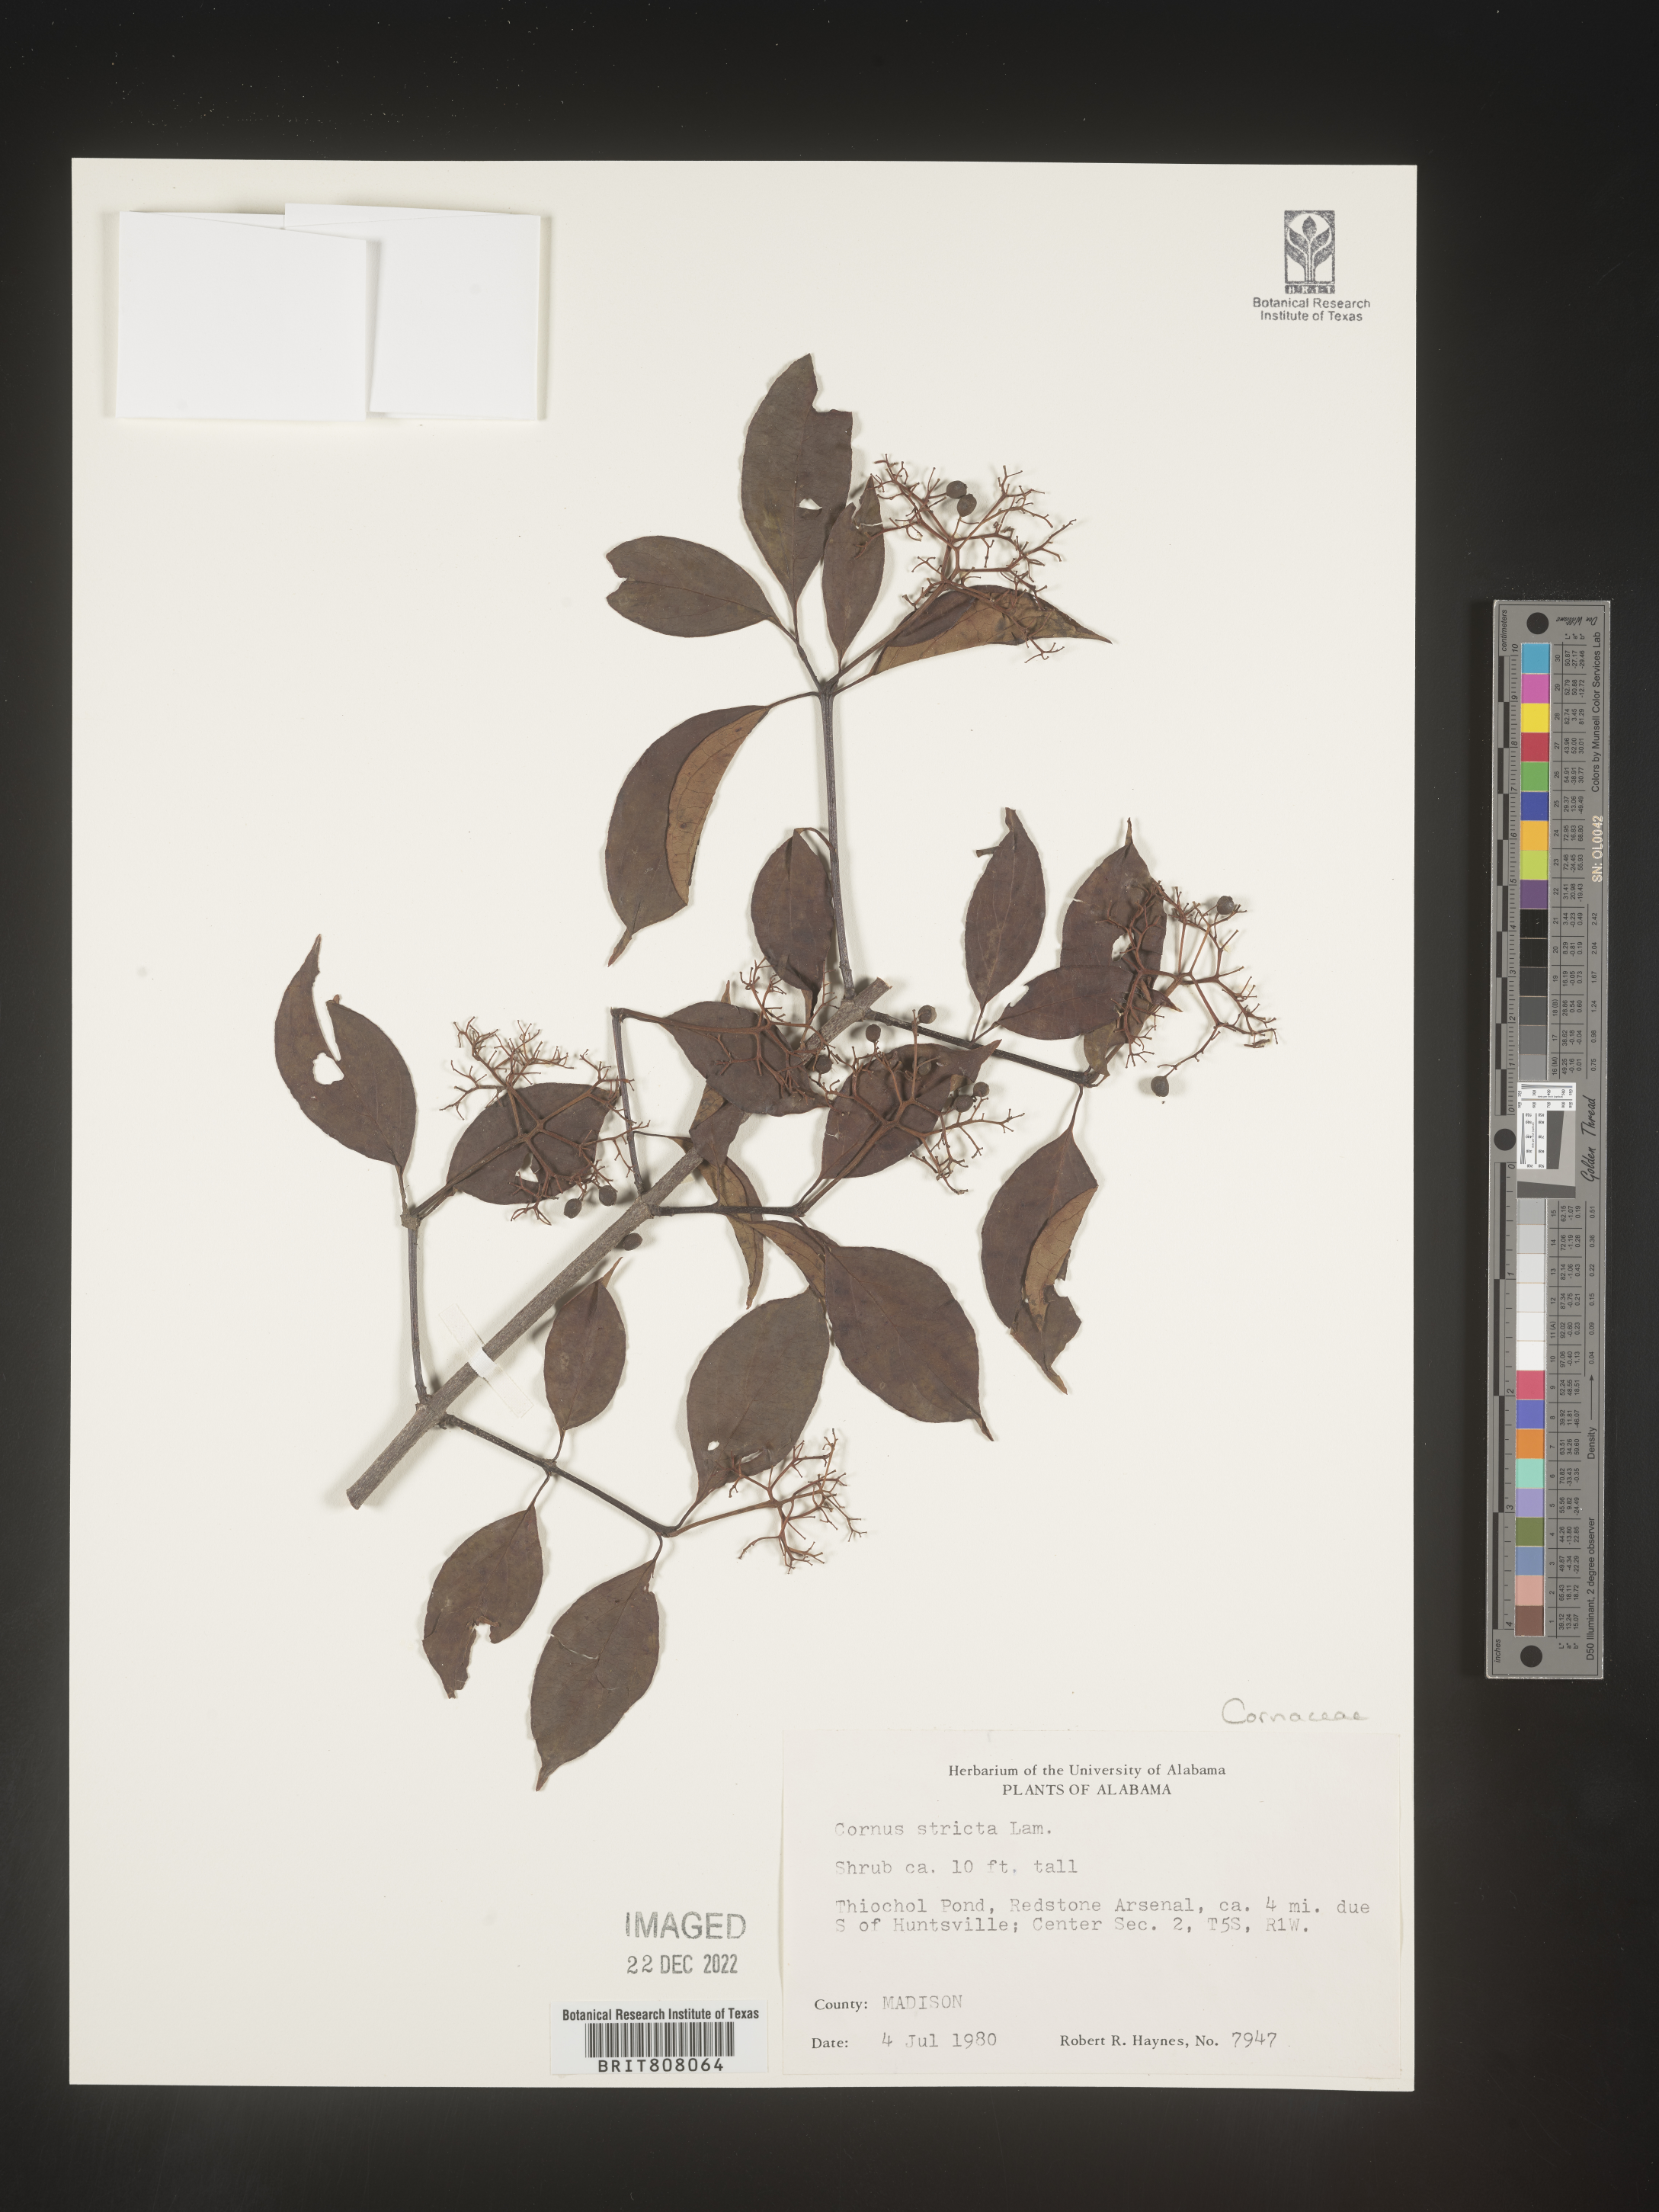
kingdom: Plantae
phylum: Tracheophyta
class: Magnoliopsida
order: Cornales
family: Cornaceae
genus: Cornus
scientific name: Cornus foemina
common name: Swamp dogwood
